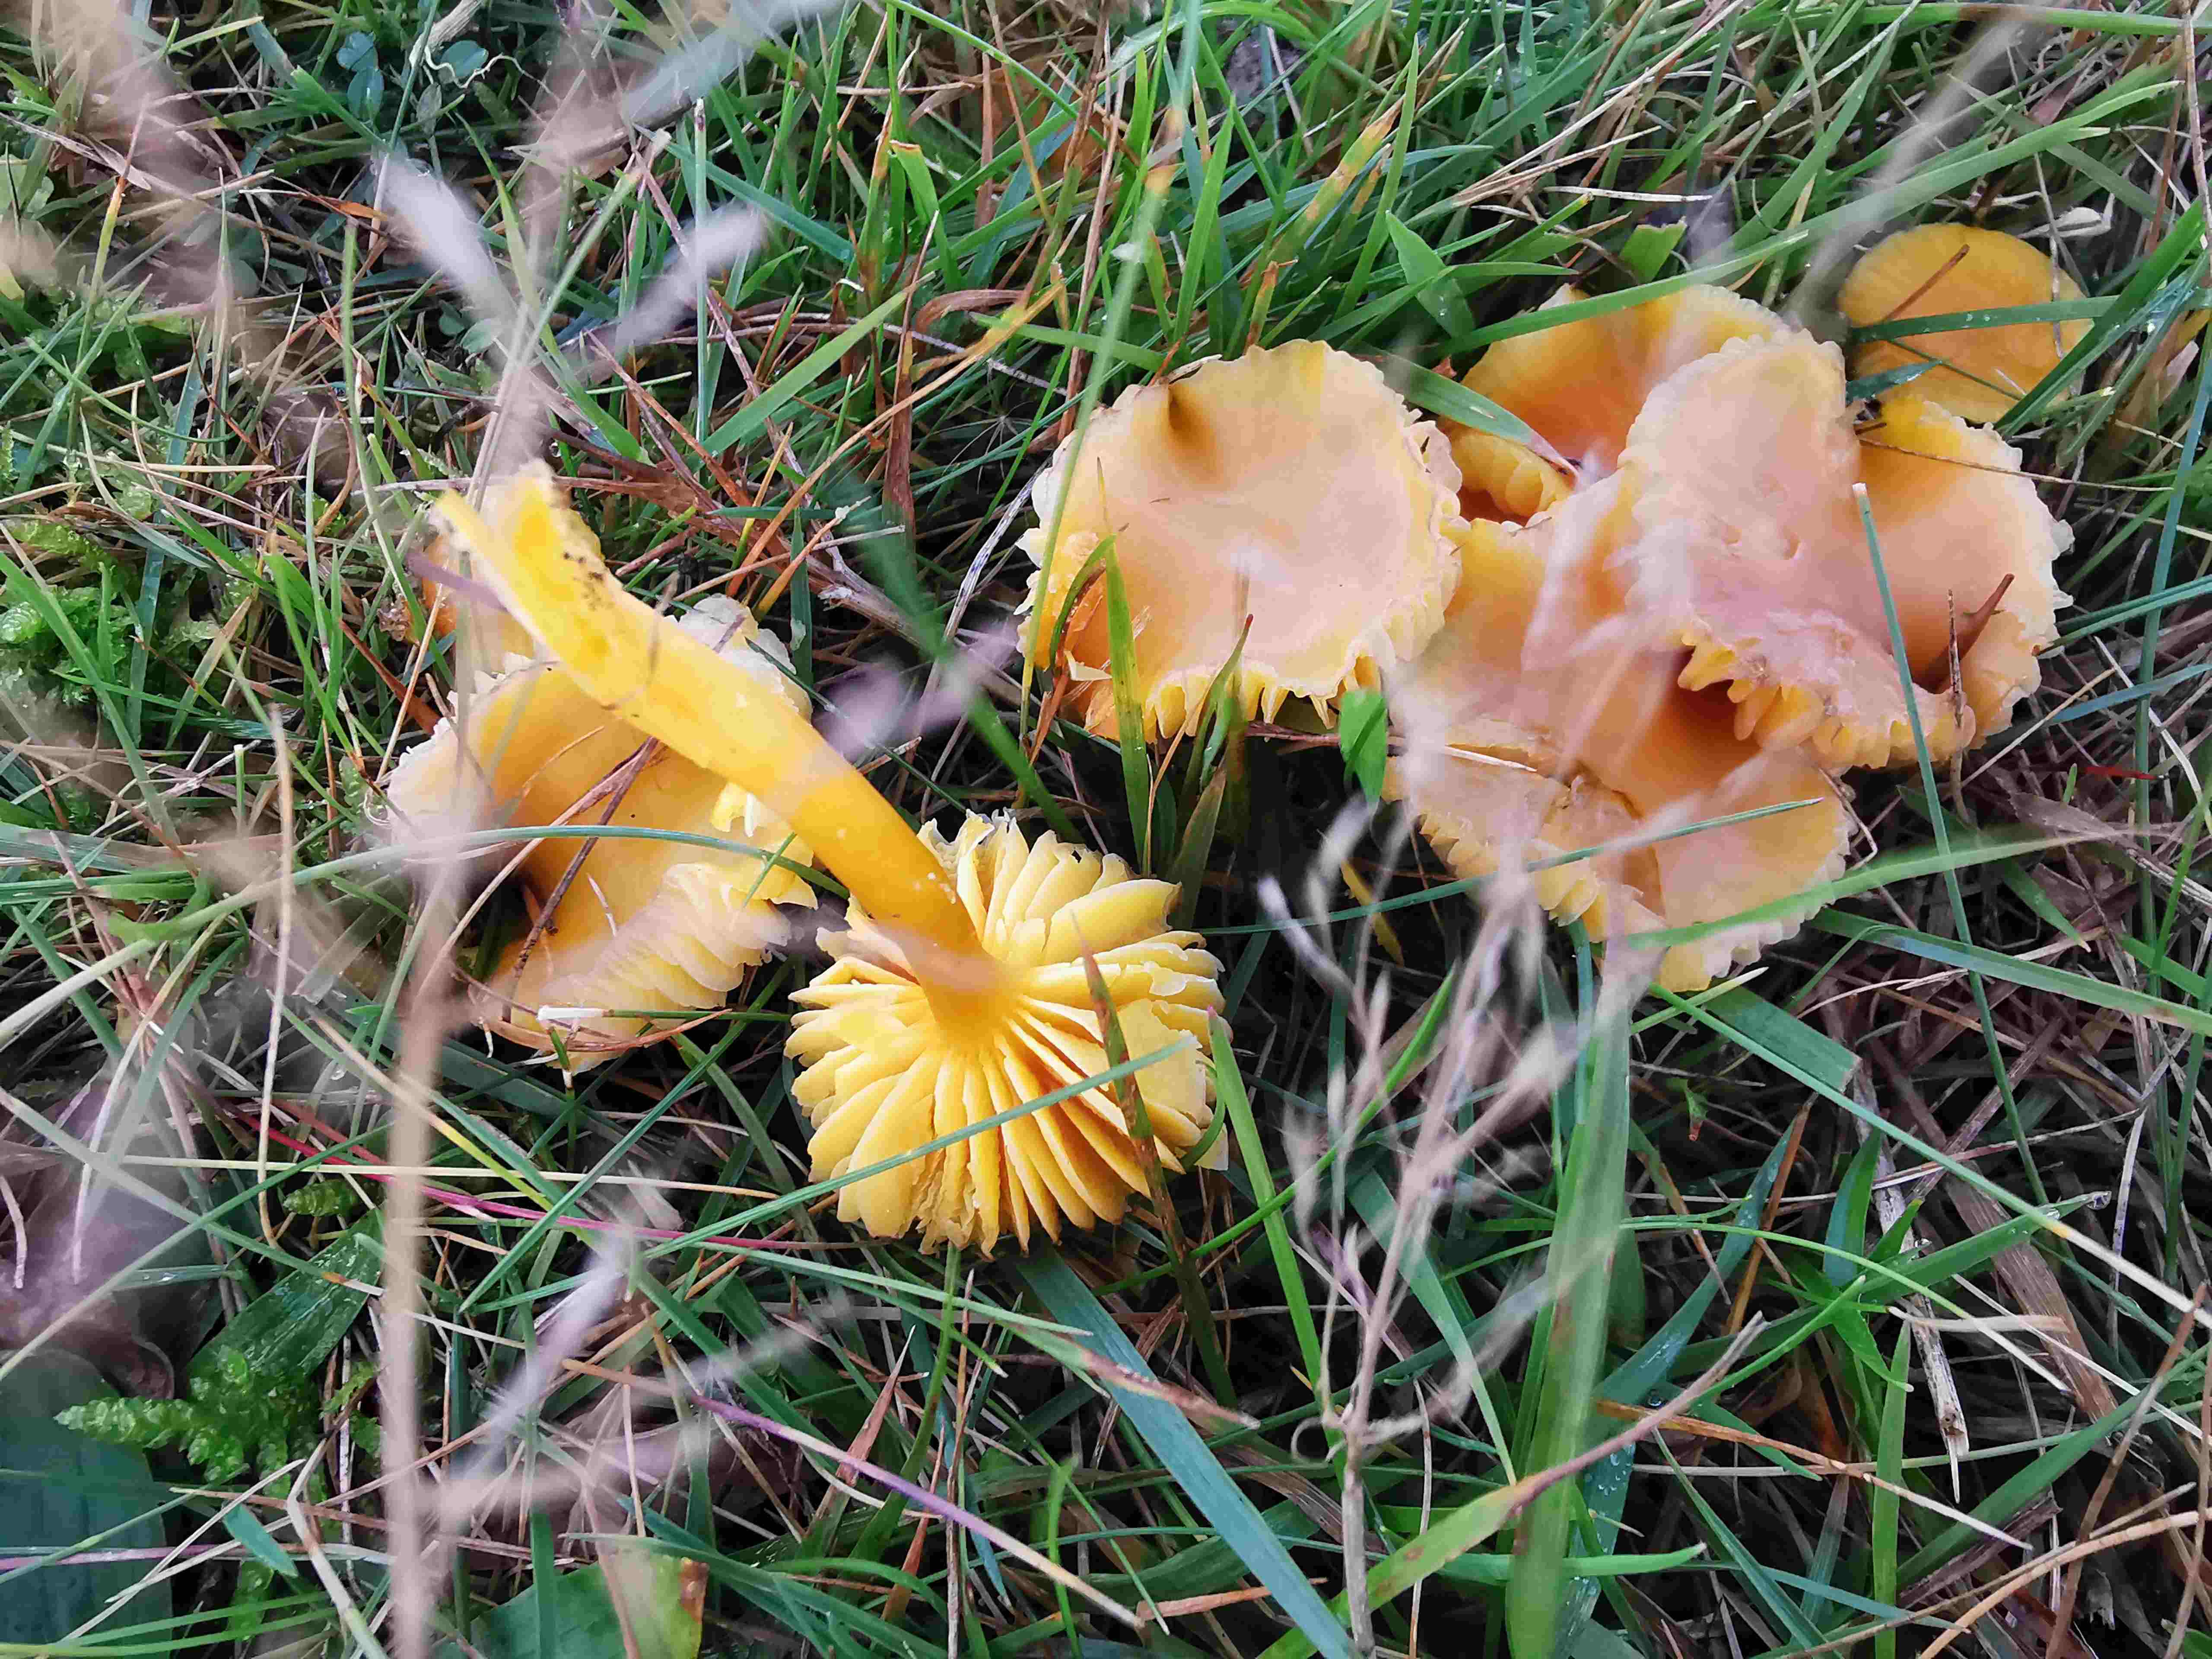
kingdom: Fungi
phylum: Basidiomycota
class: Agaricomycetes
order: Agaricales
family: Hygrophoraceae
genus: Hygrocybe
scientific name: Hygrocybe chlorophana
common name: gul vokshat
